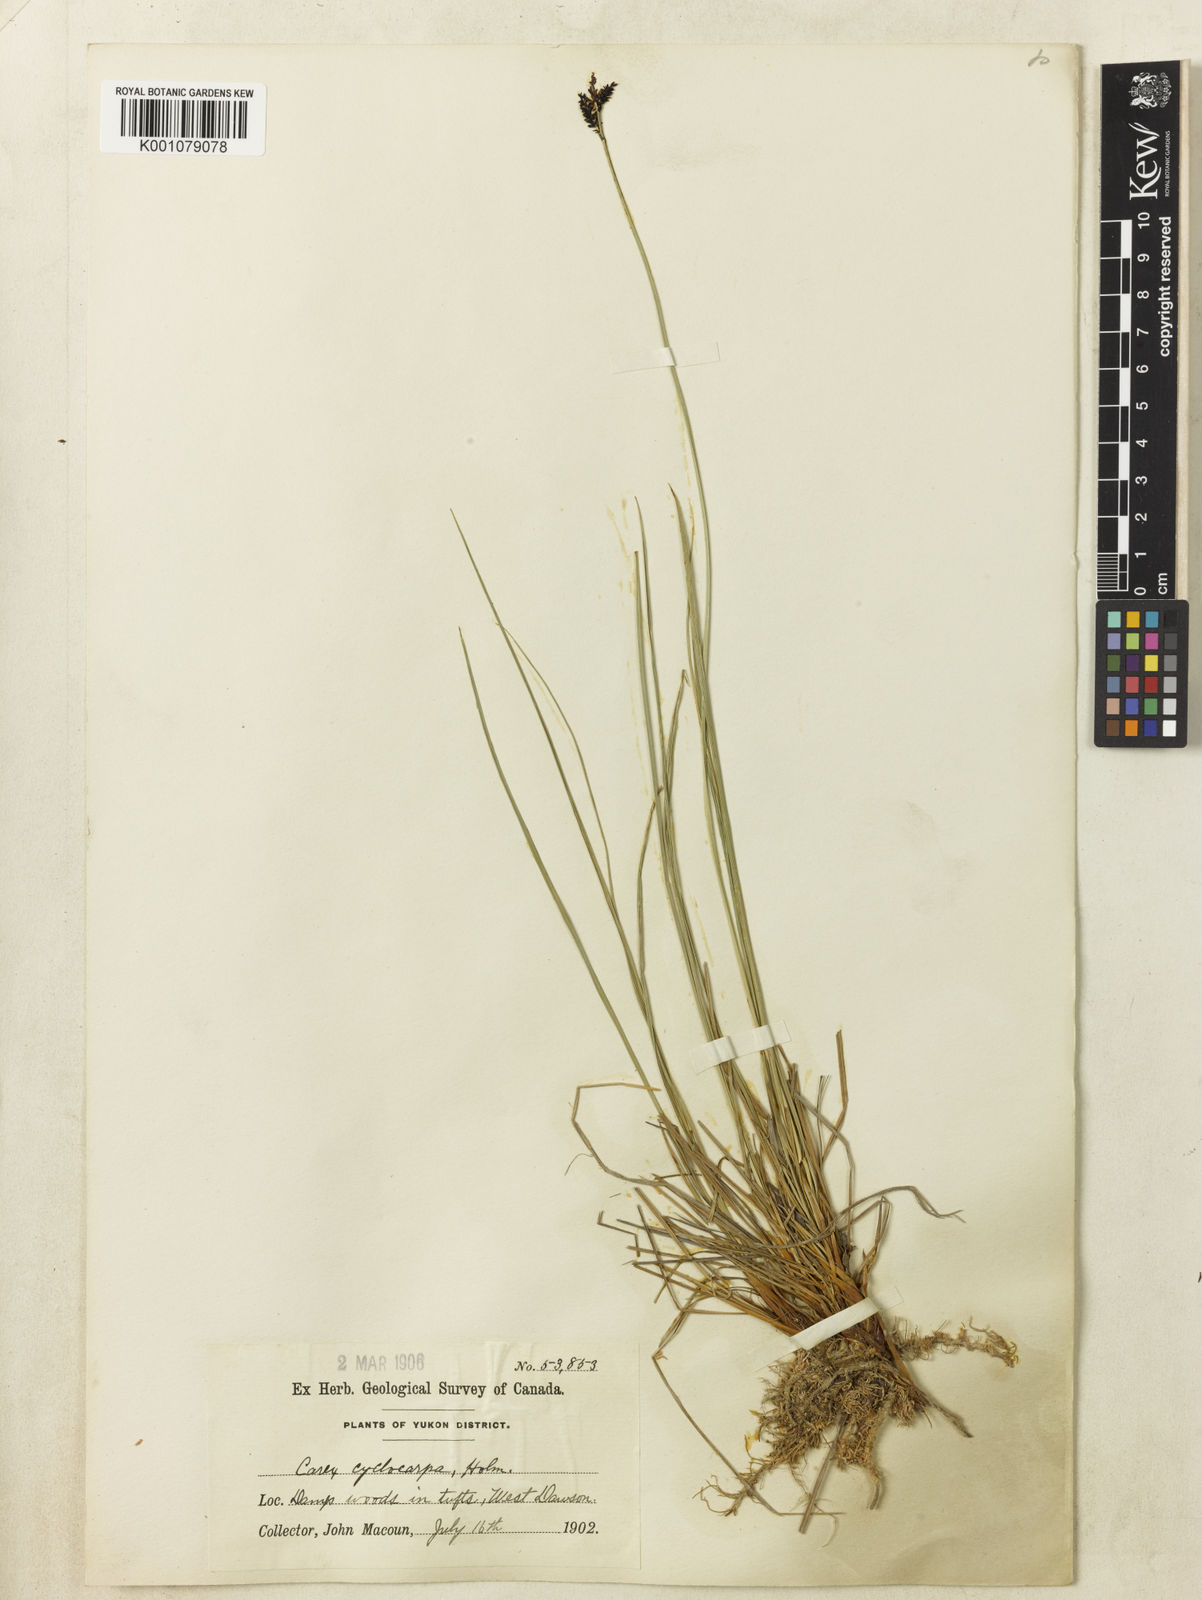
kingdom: Plantae
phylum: Tracheophyta
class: Liliopsida
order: Poales
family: Cyperaceae
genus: Carex
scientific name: Carex bigelowii
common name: Stiff sedge
